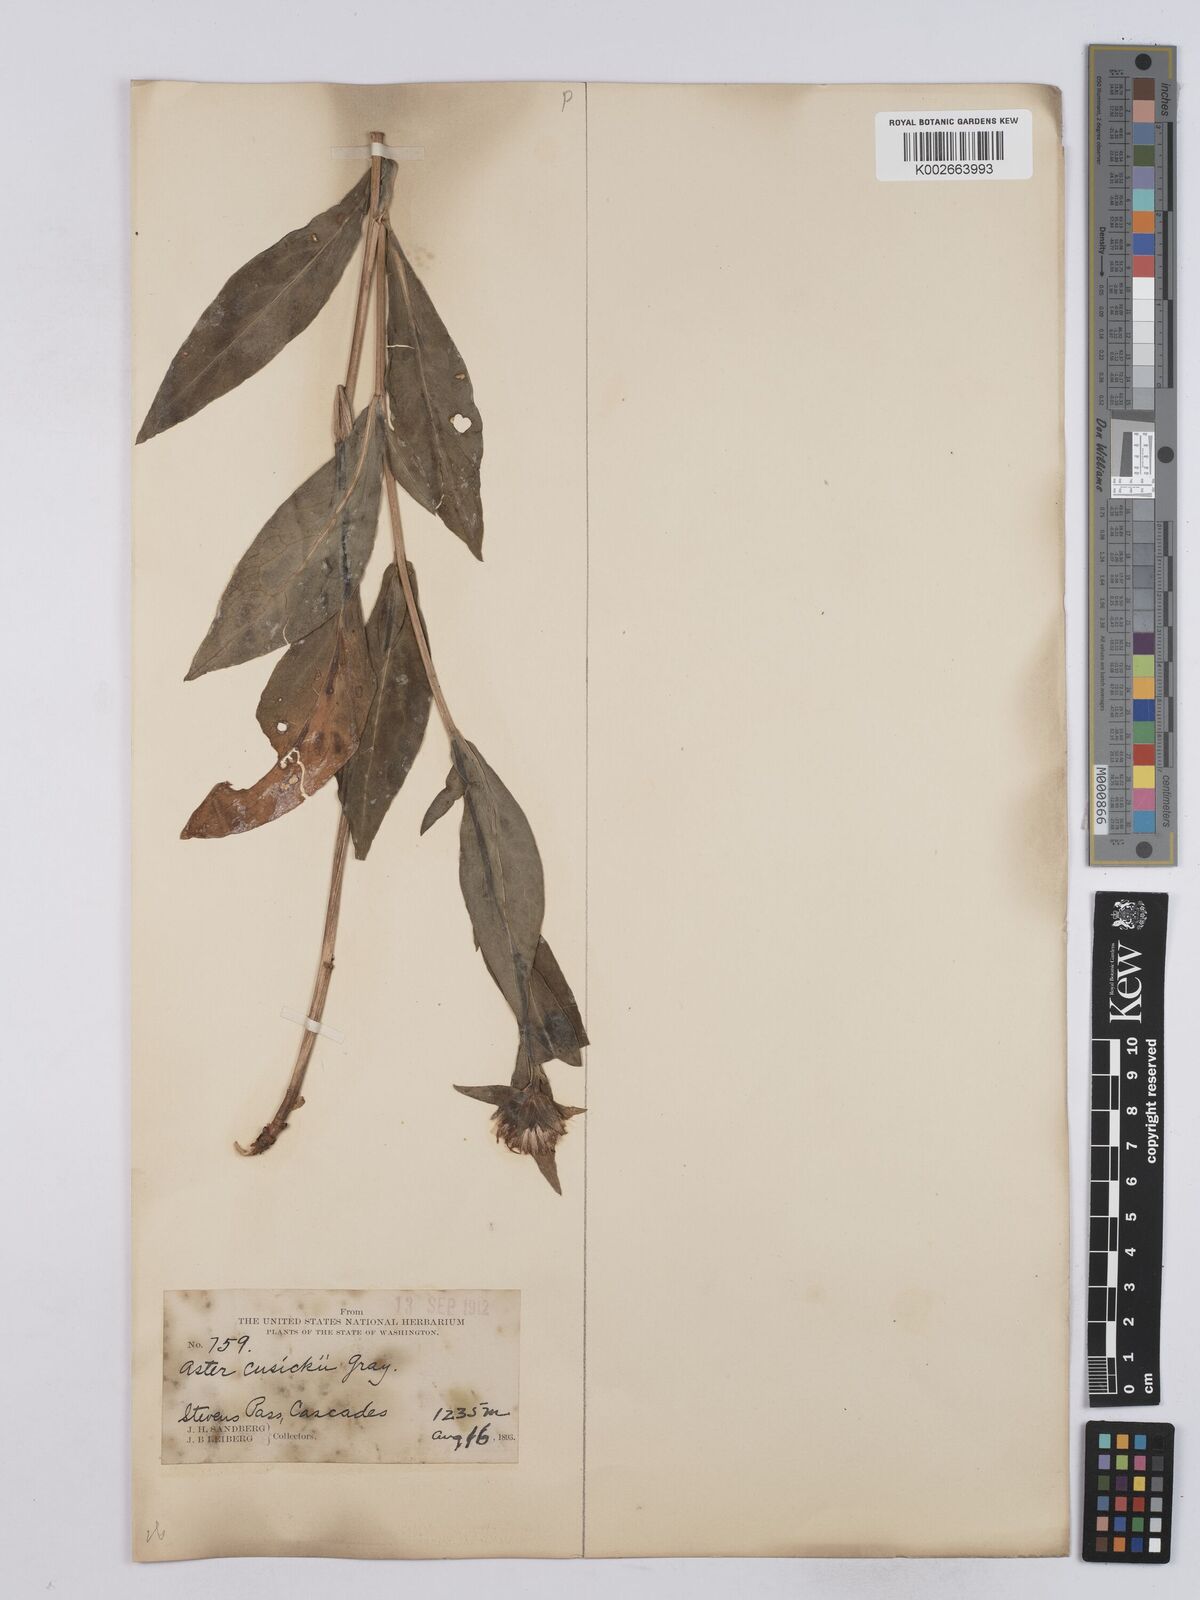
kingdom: Plantae
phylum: Tracheophyta
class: Magnoliopsida
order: Asterales
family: Asteraceae
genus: Symphyotrichum
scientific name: Symphyotrichum foliaceum
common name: Leafy aster
